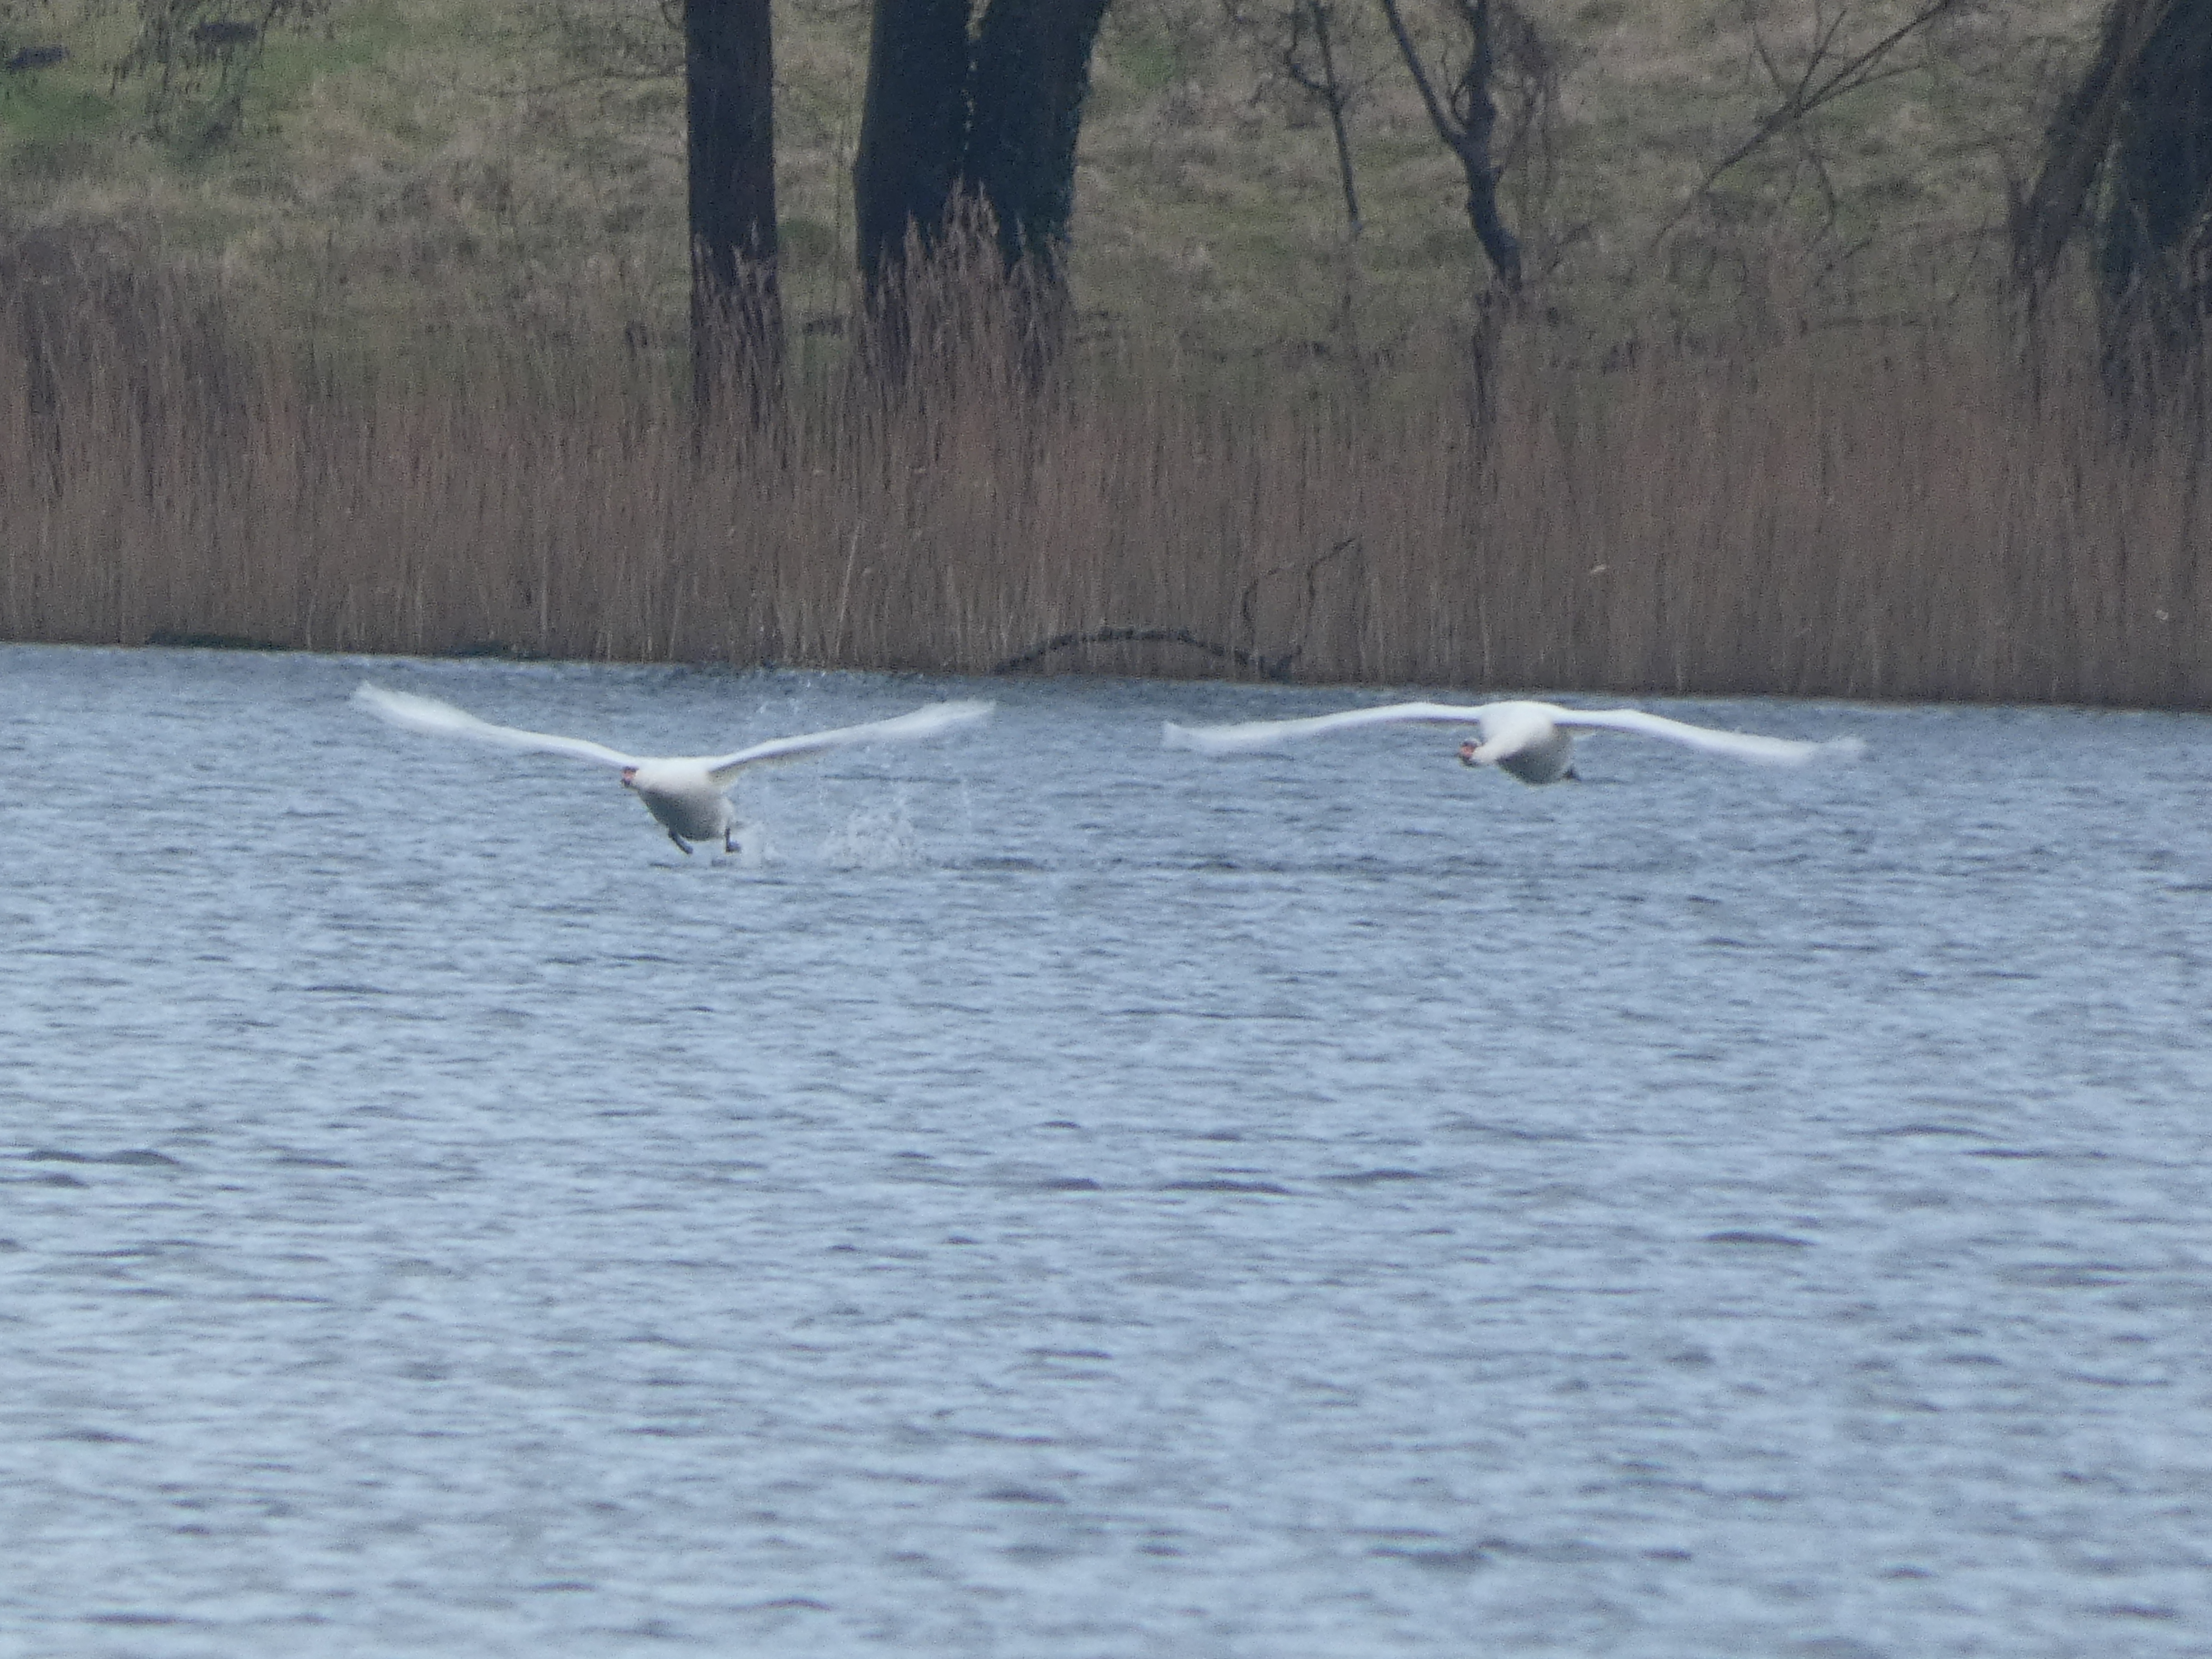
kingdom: Animalia
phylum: Chordata
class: Aves
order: Anseriformes
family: Anatidae
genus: Cygnus
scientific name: Cygnus olor
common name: Knopsvane
